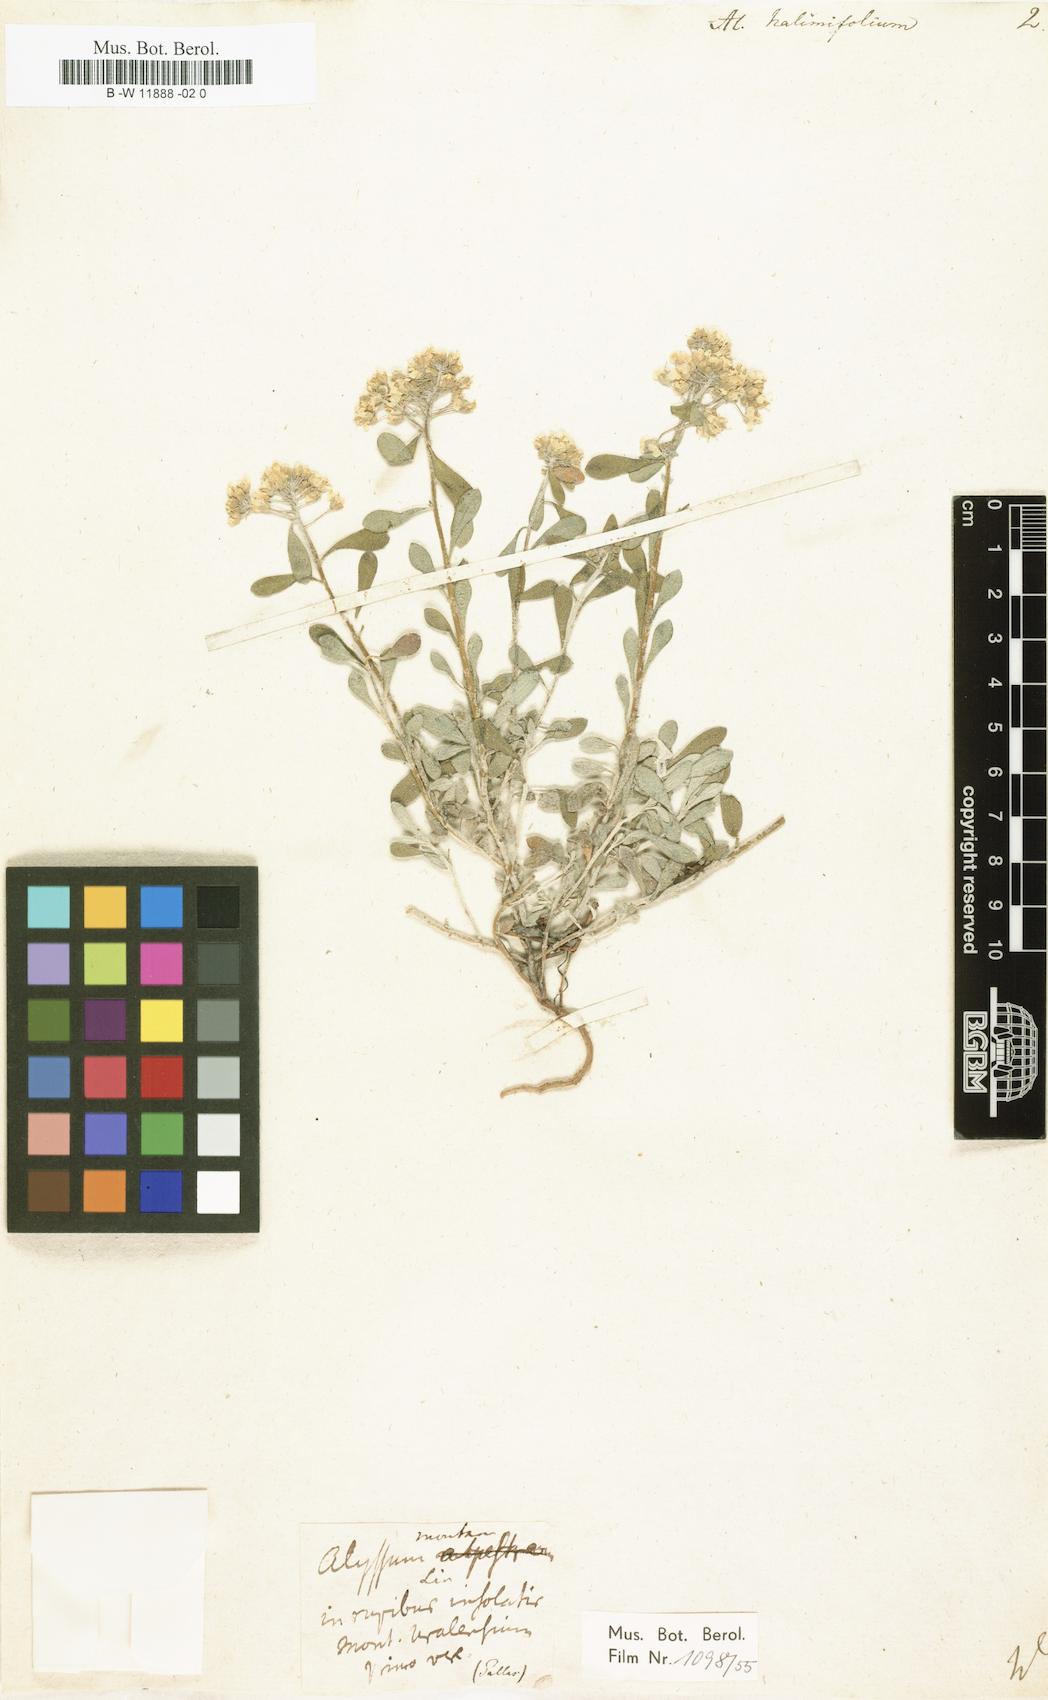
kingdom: Plantae
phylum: Tracheophyta
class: Magnoliopsida
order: Brassicales
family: Brassicaceae
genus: Hormathophylla
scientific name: Hormathophylla ligustica
